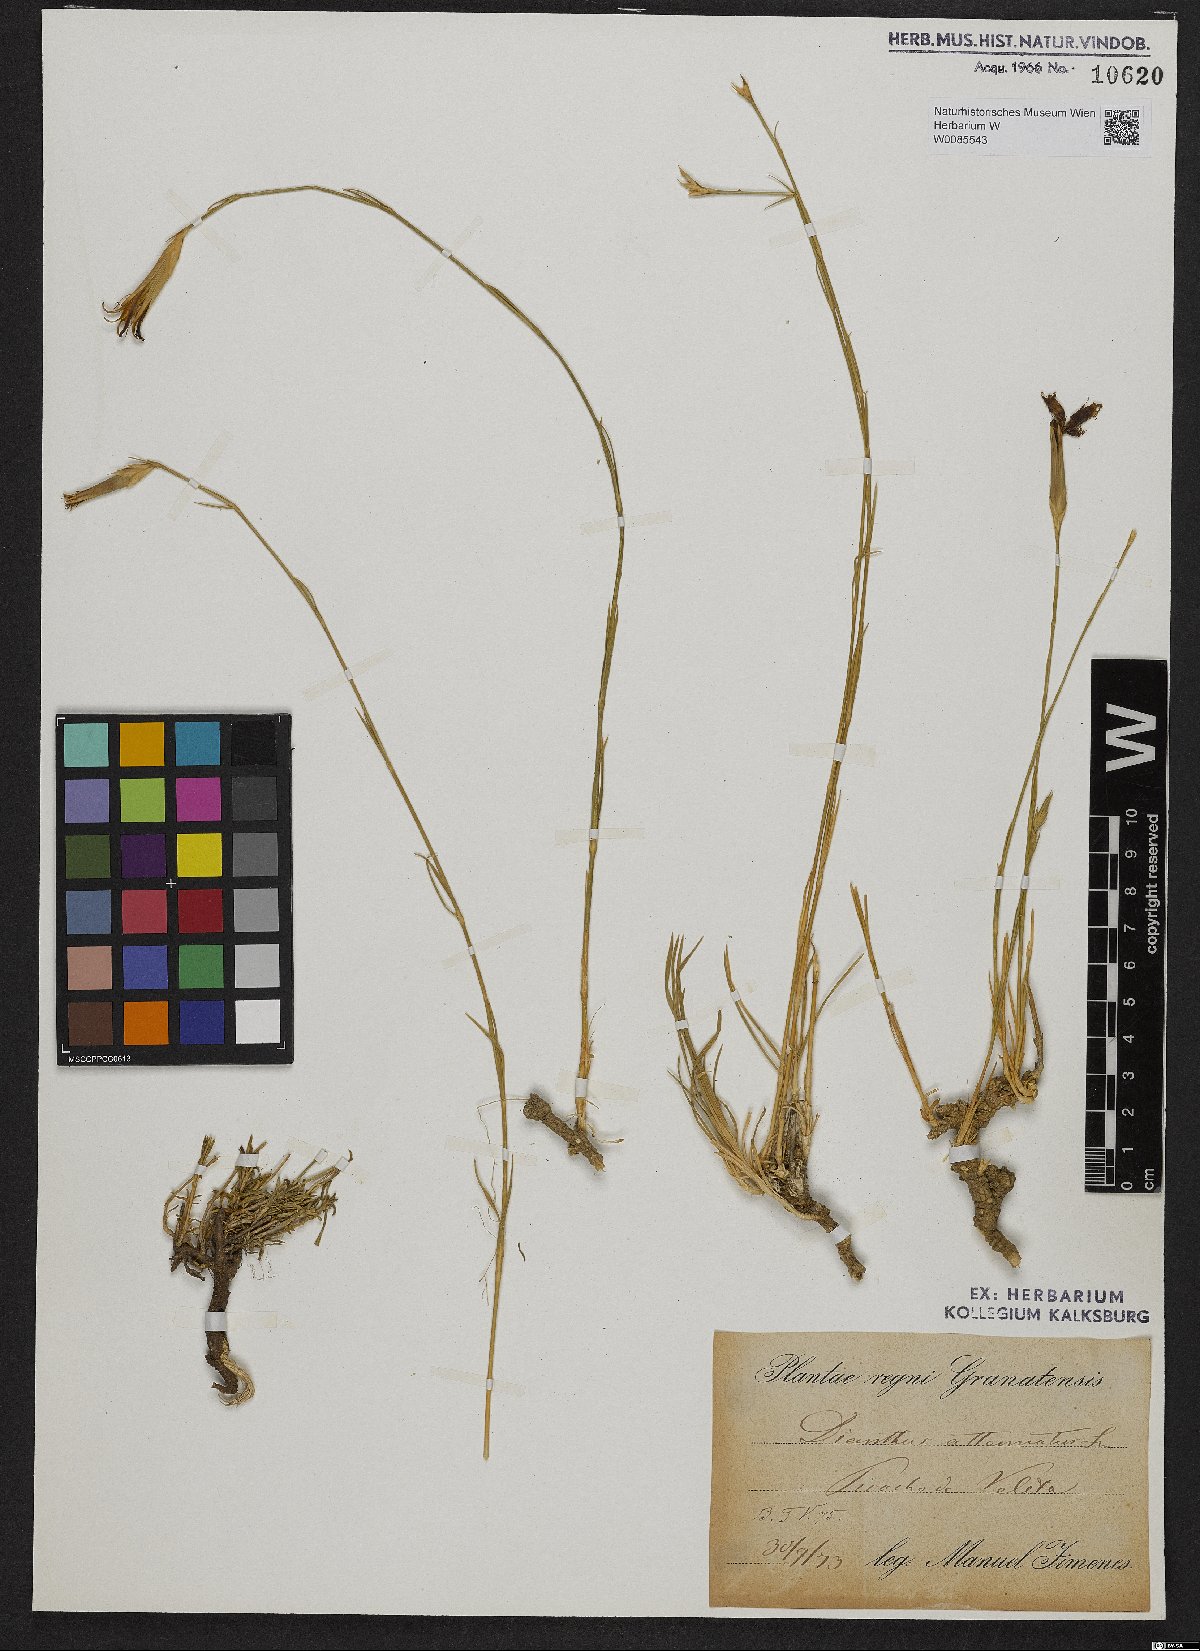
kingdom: Plantae
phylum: Tracheophyta
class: Magnoliopsida
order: Caryophyllales
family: Caryophyllaceae
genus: Dianthus
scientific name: Dianthus pyrenaicus
